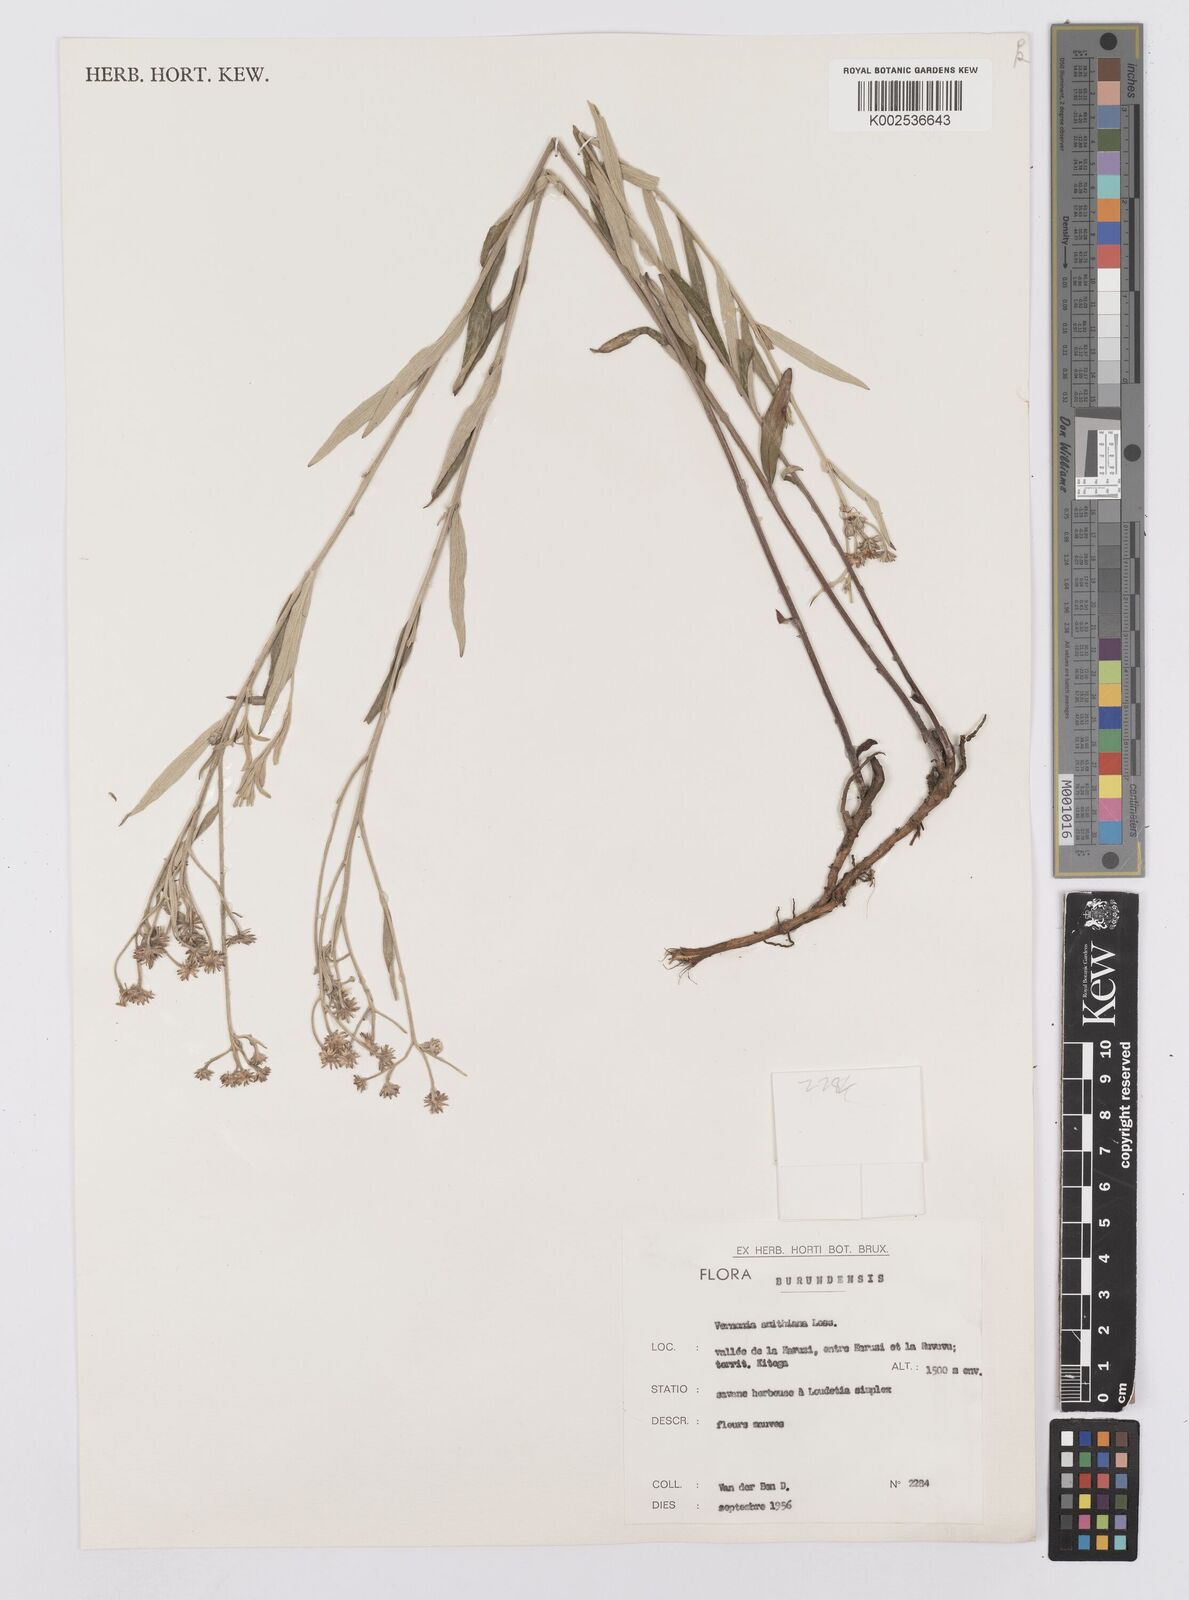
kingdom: Plantae
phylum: Tracheophyta
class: Magnoliopsida
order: Asterales
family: Asteraceae
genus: Hilliardiella
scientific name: Hilliardiella smithiana
